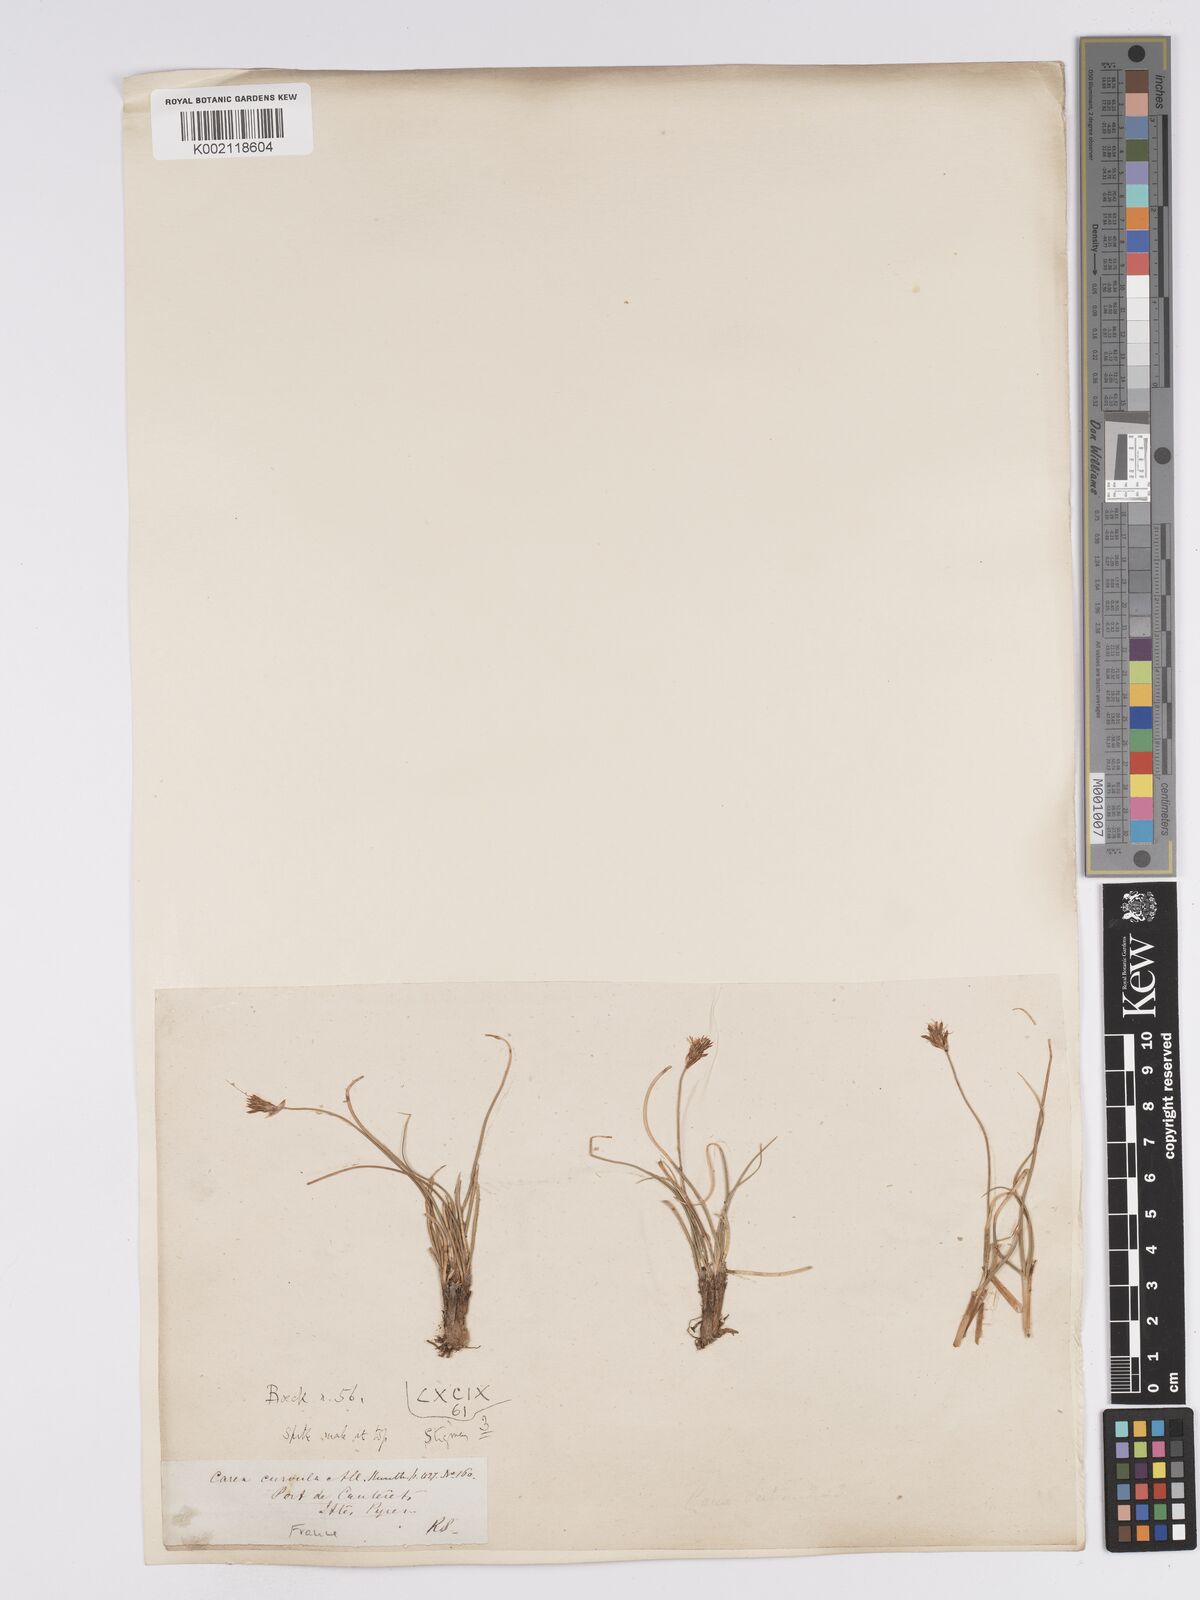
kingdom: Plantae
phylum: Tracheophyta
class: Liliopsida
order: Poales
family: Cyperaceae
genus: Carex
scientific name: Carex curvula
